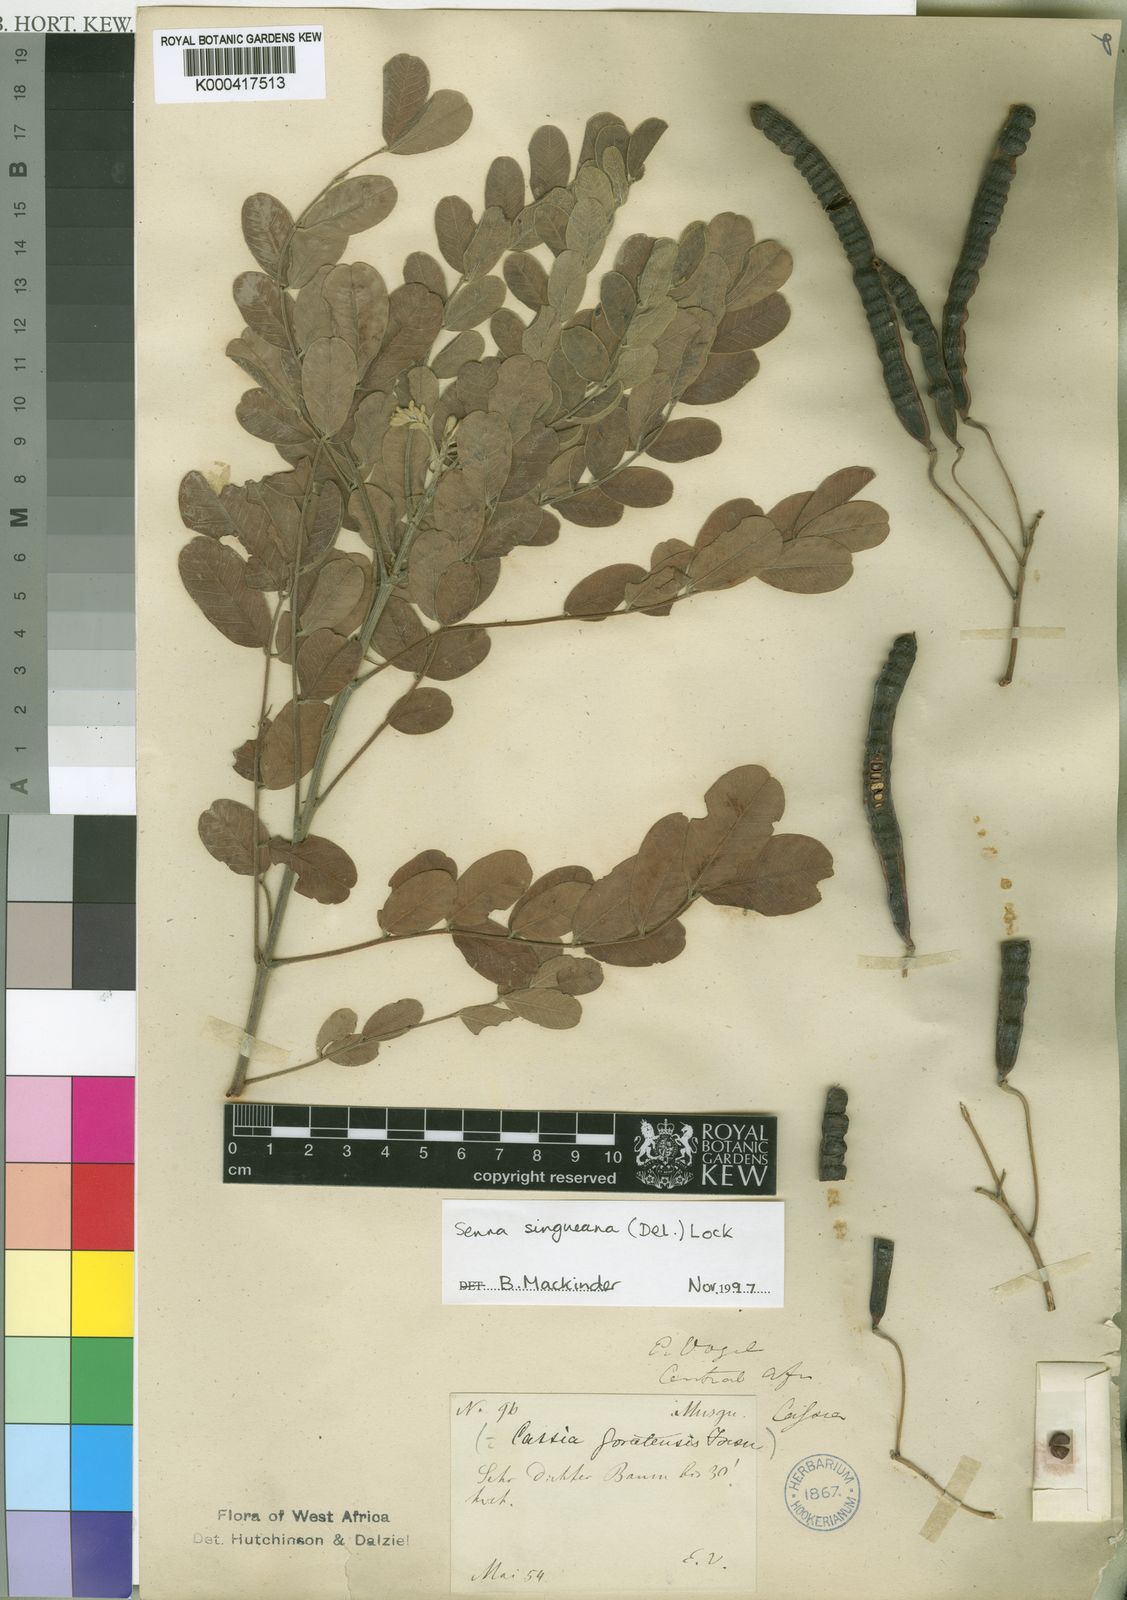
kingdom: Plantae
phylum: Tracheophyta
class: Magnoliopsida
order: Fabales
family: Fabaceae
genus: Senna
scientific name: Senna singueana
